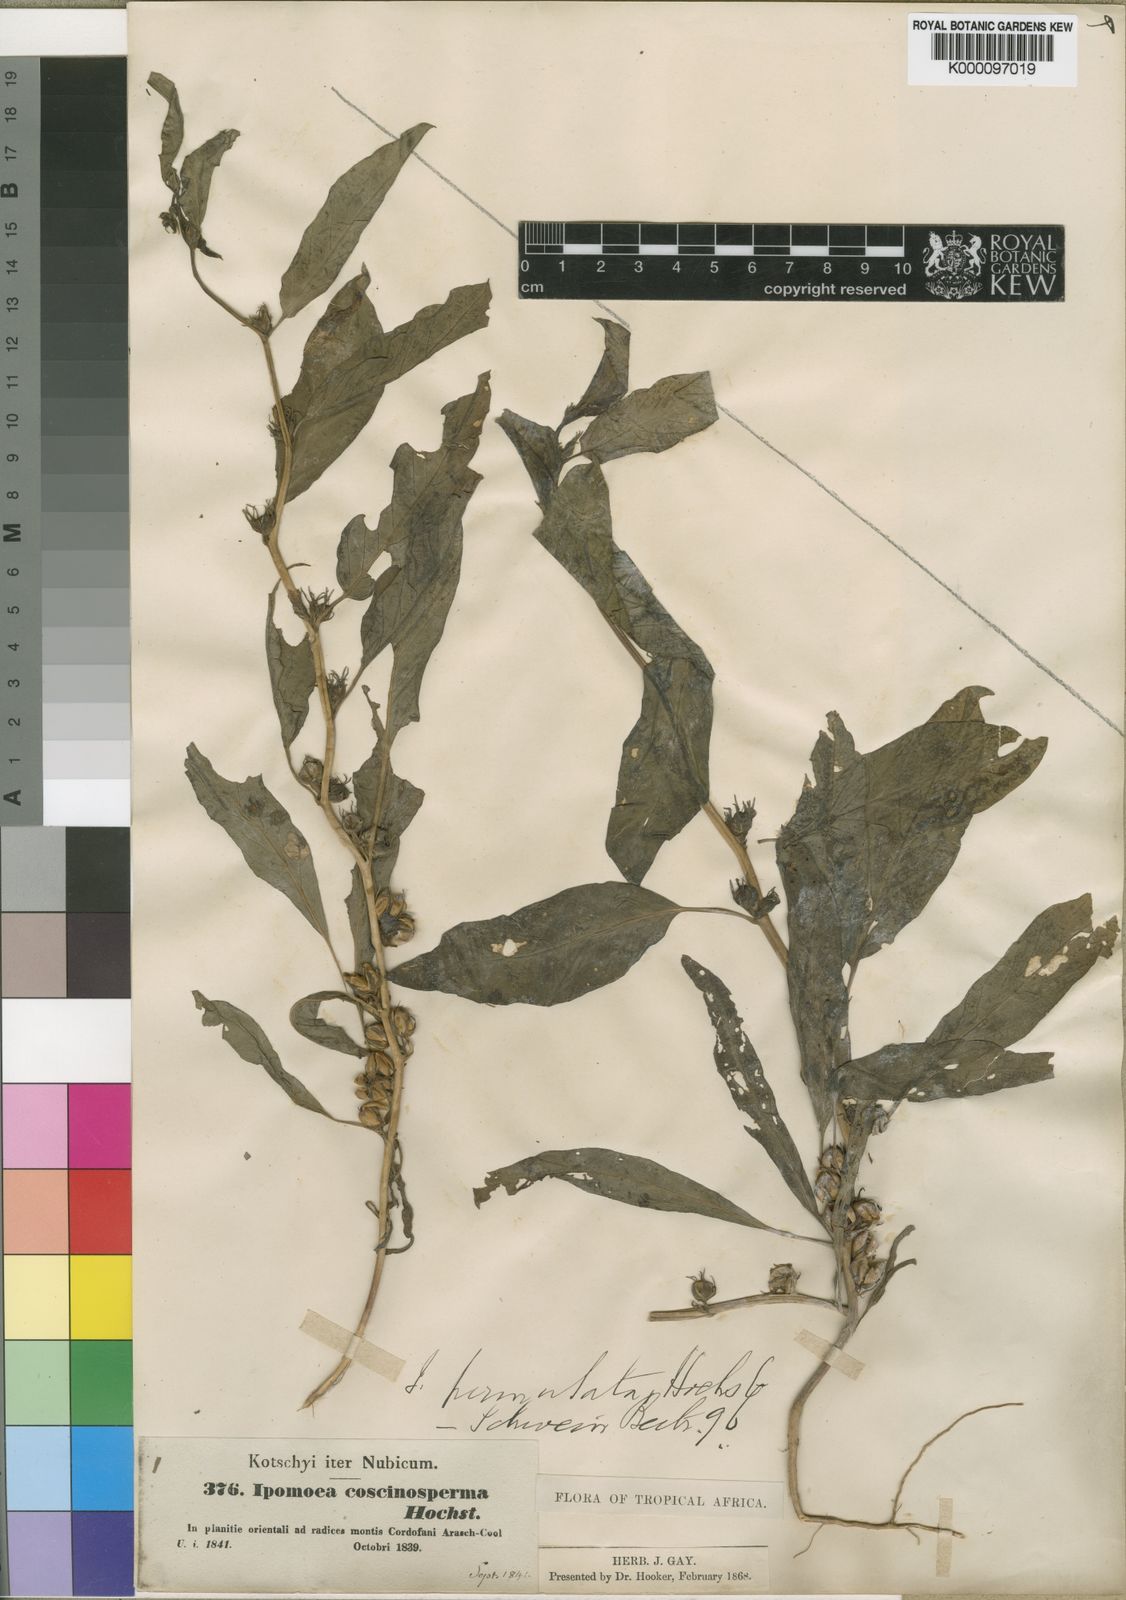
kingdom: Plantae
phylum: Tracheophyta
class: Magnoliopsida
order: Solanales
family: Convolvulaceae
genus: Ipomoea
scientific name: Ipomoea coscinosperma
